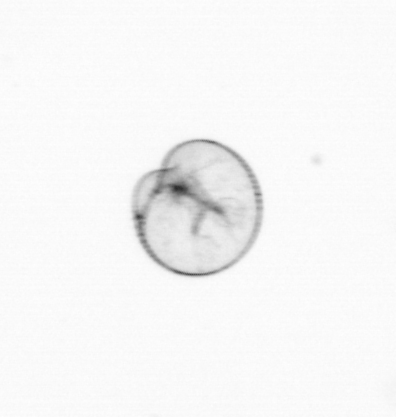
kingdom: Chromista
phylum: Myzozoa
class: Dinophyceae
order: Noctilucales
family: Noctilucaceae
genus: Noctiluca
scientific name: Noctiluca scintillans
